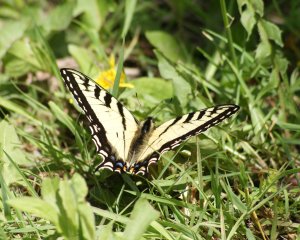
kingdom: Animalia
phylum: Arthropoda
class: Insecta
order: Lepidoptera
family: Papilionidae
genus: Pterourus
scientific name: Pterourus canadensis
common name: Canadian Tiger Swallowtail
